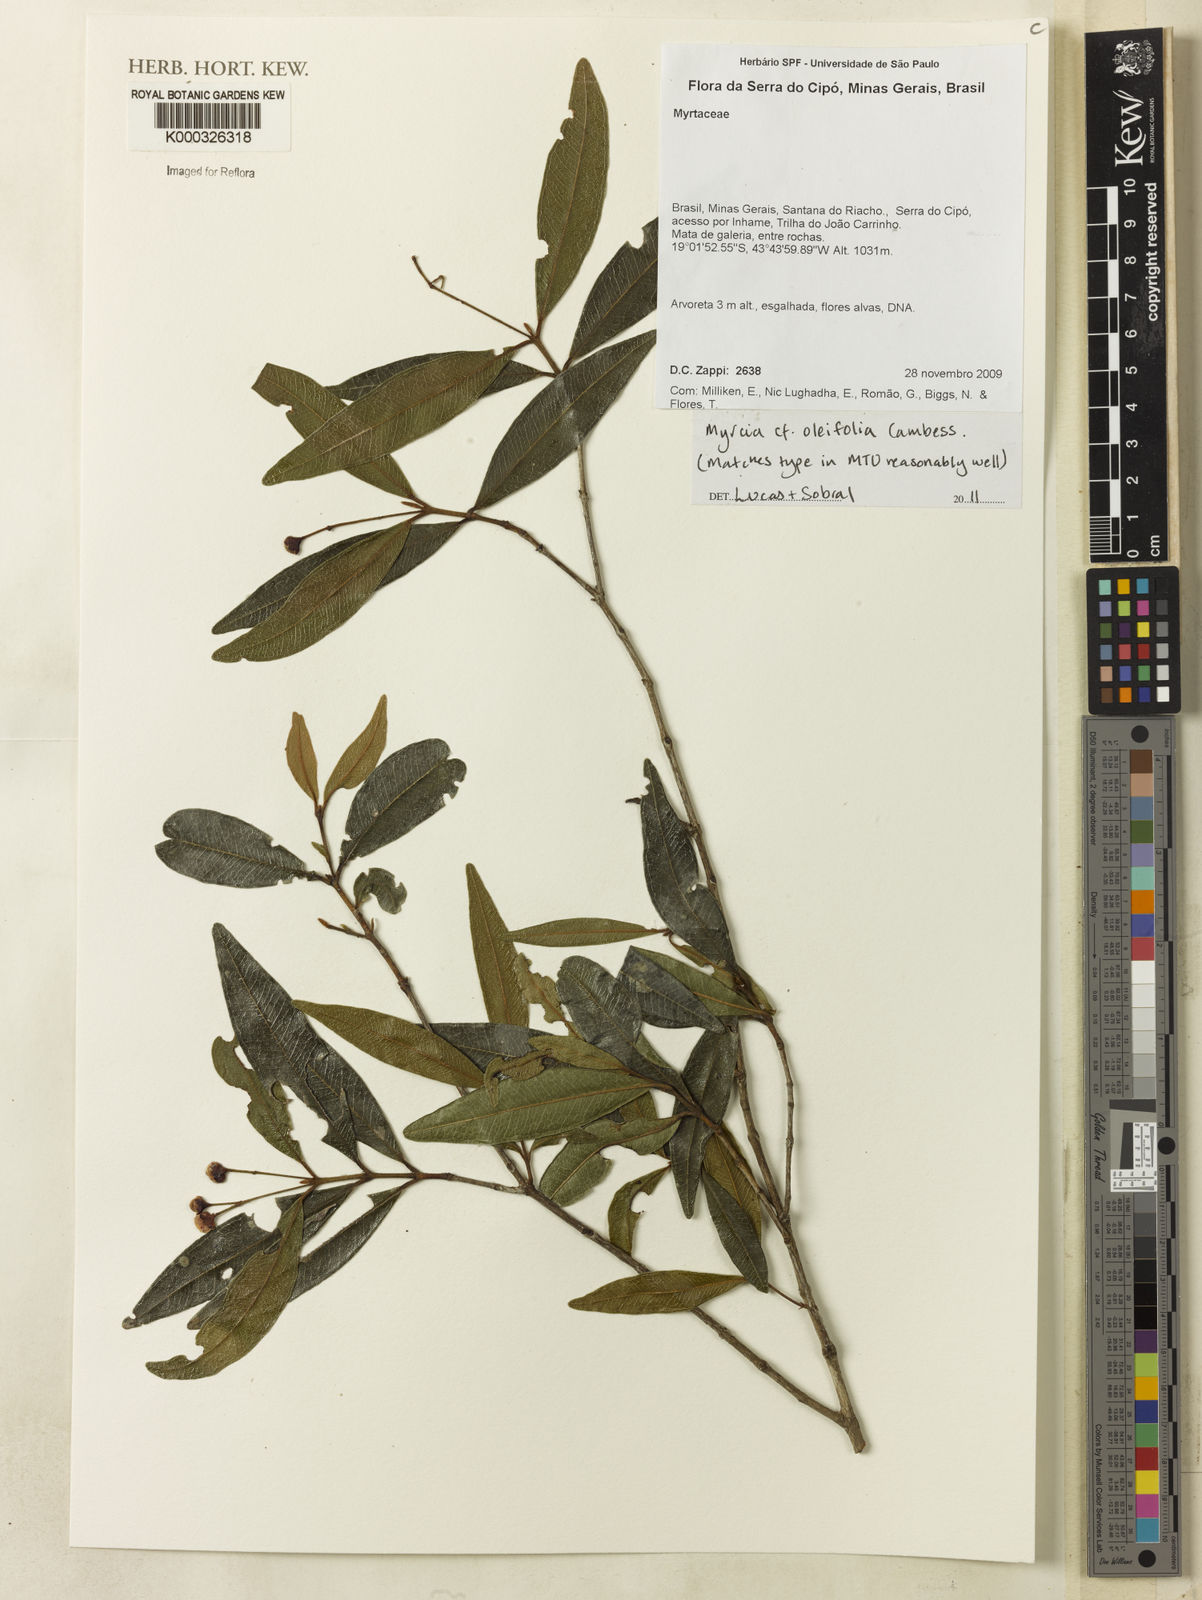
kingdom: Plantae
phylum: Tracheophyta
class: Magnoliopsida
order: Myrtales
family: Myrtaceae
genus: Myrcia
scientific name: Myrcia venulosa
